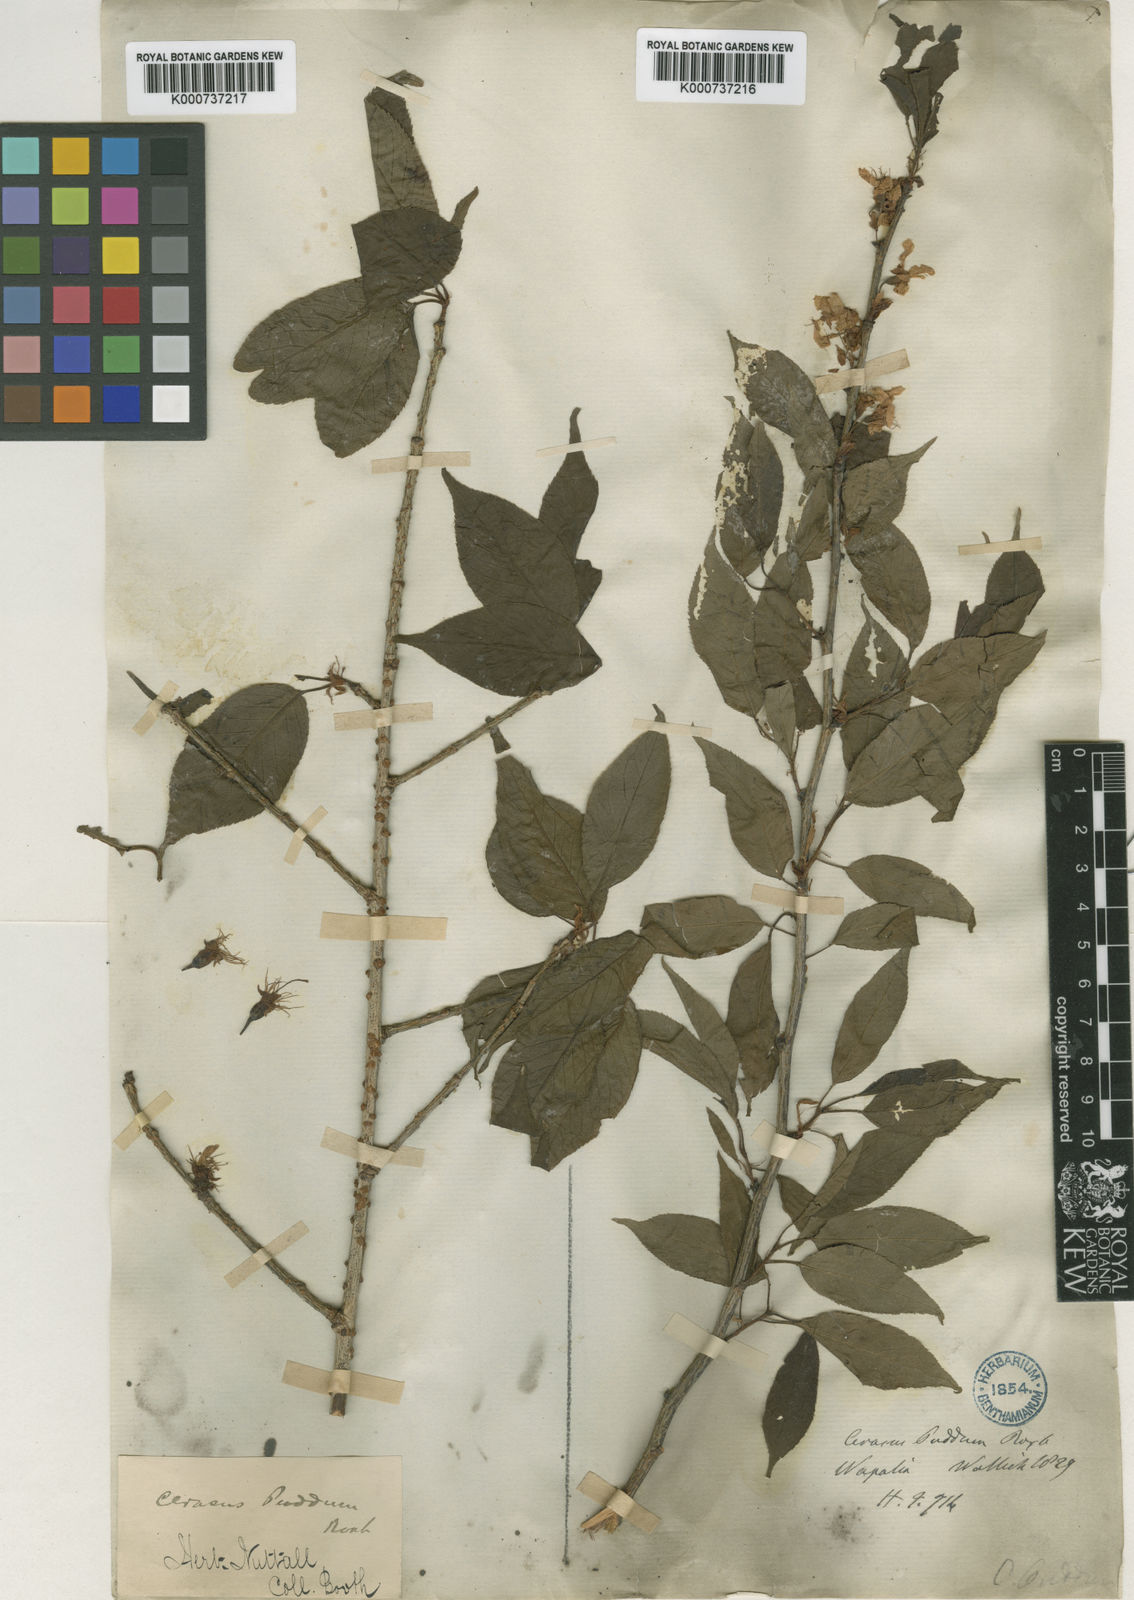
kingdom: Plantae
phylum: Tracheophyta
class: Magnoliopsida
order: Rosales
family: Rosaceae
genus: Prunus
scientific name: Prunus cerasoides
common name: Wild himalayan cherry
